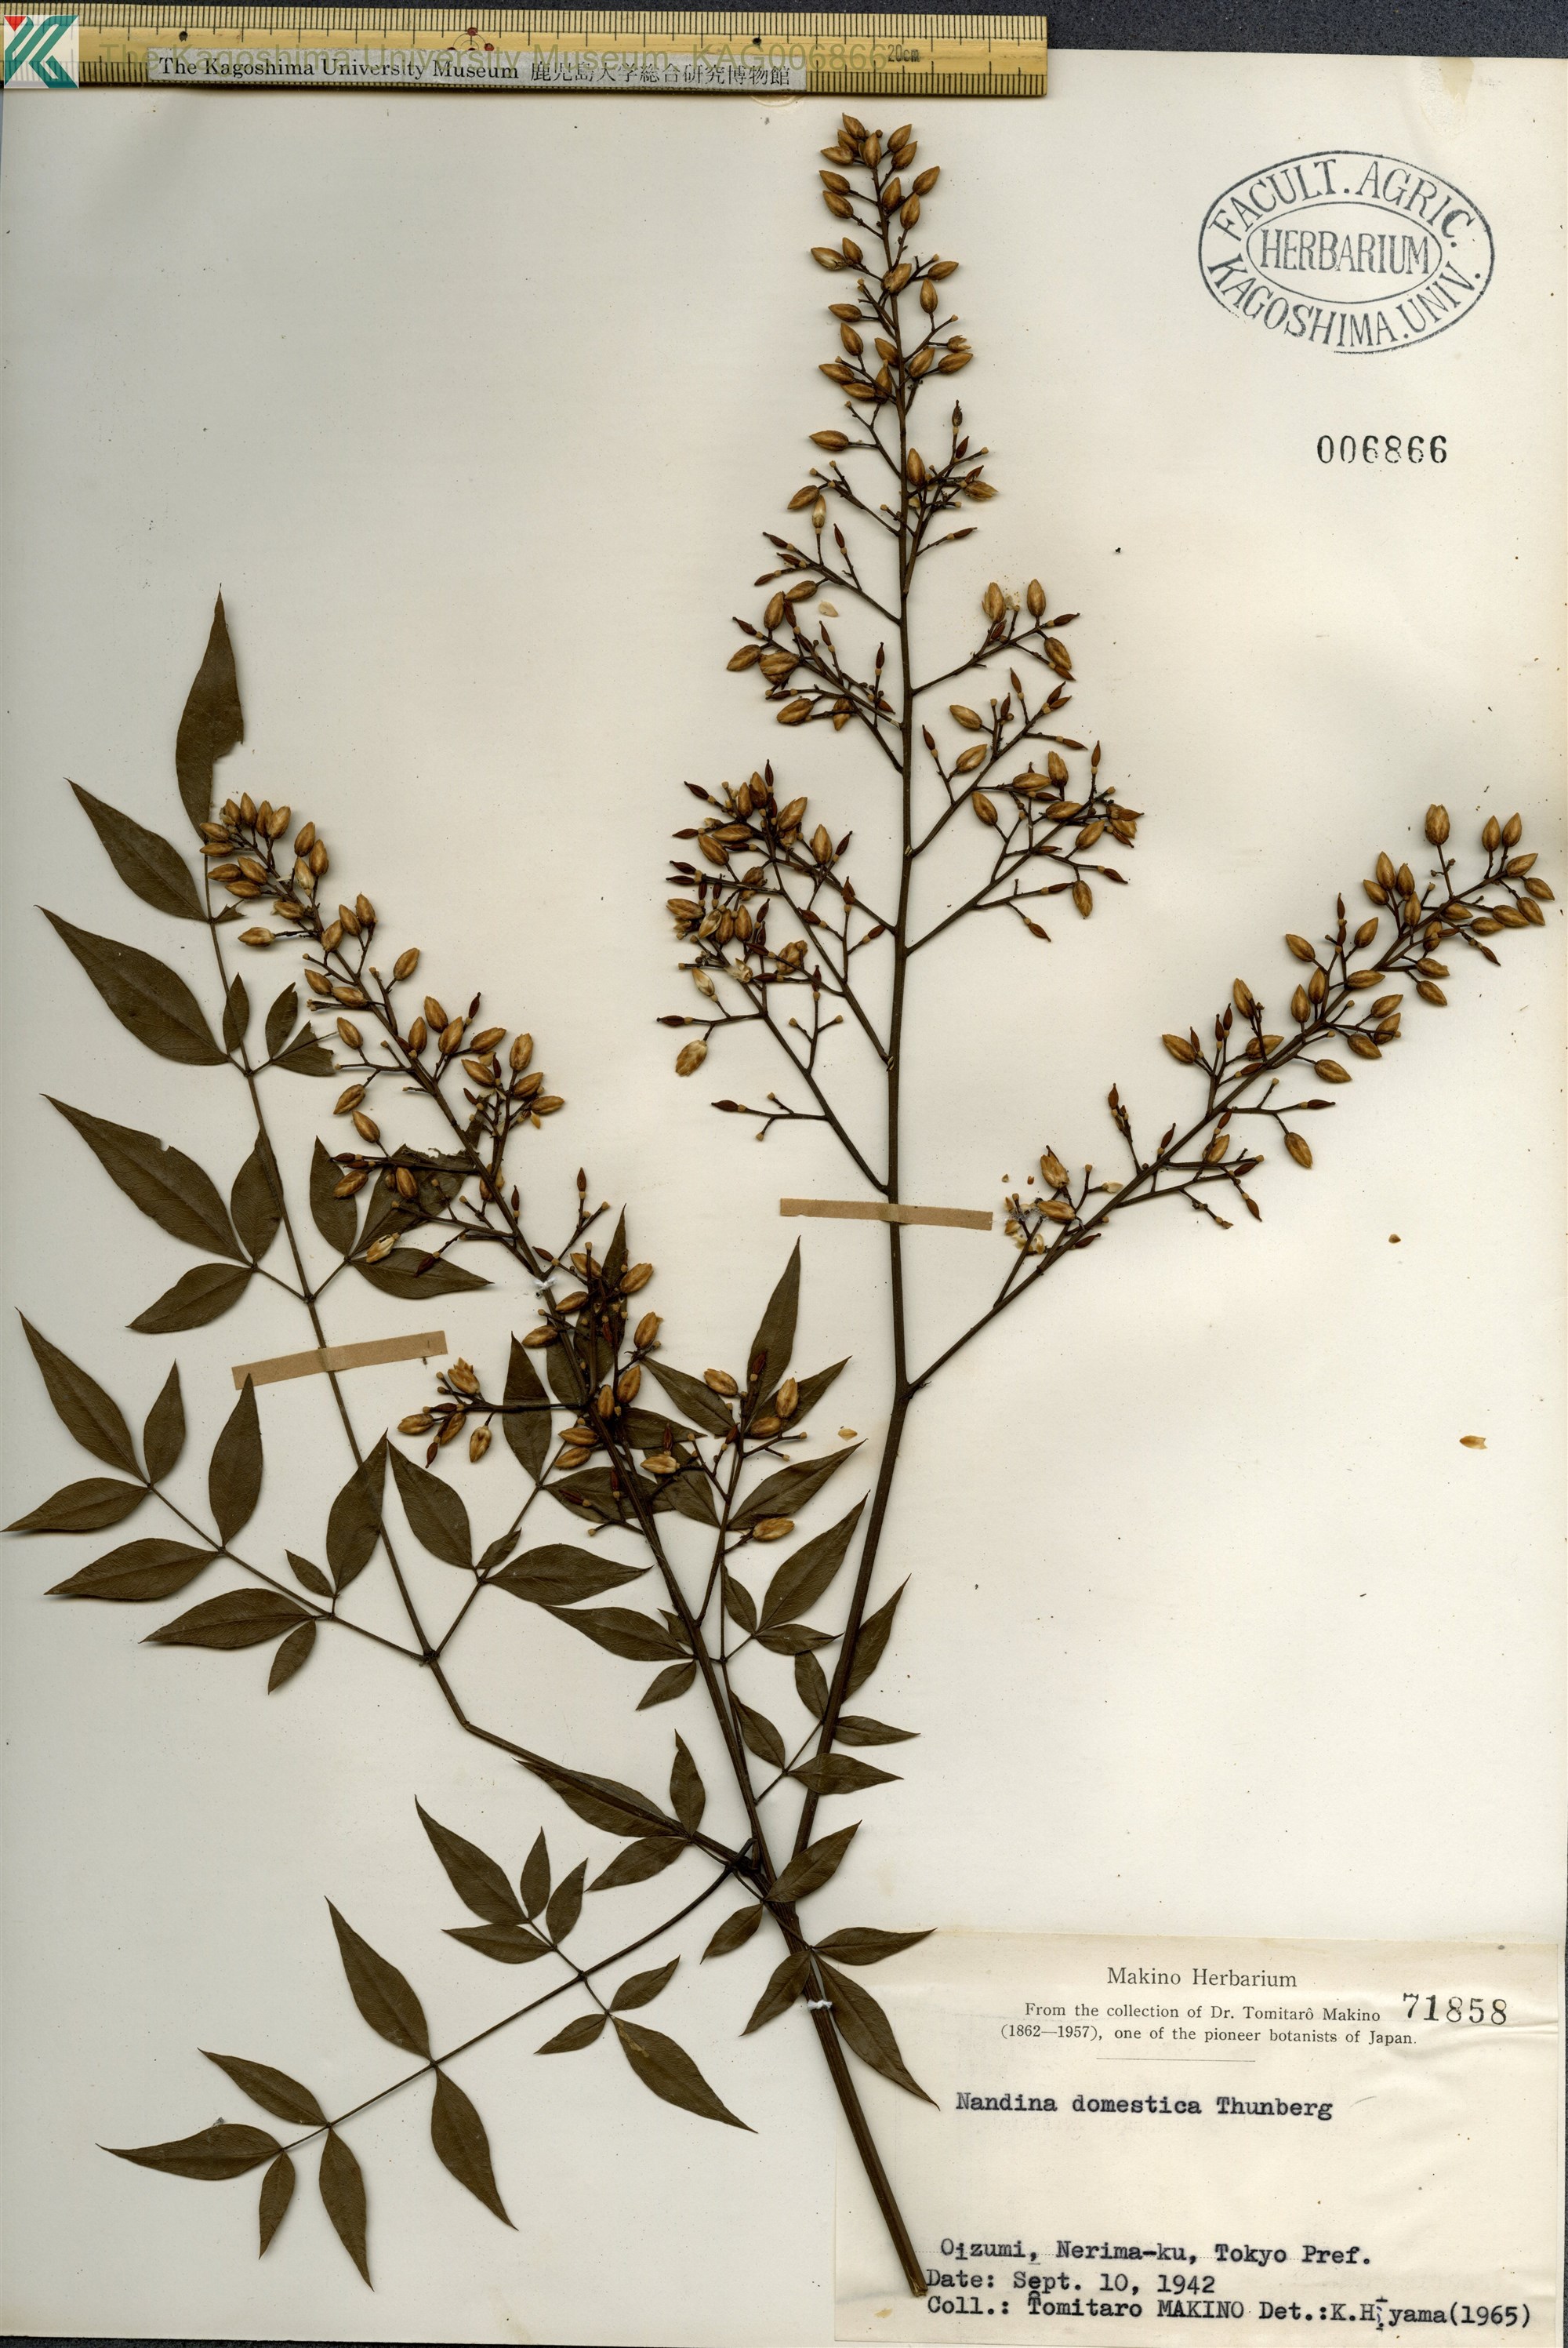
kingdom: Plantae
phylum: Tracheophyta
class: Magnoliopsida
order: Ranunculales
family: Berberidaceae
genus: Nandina
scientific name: Nandina domestica
